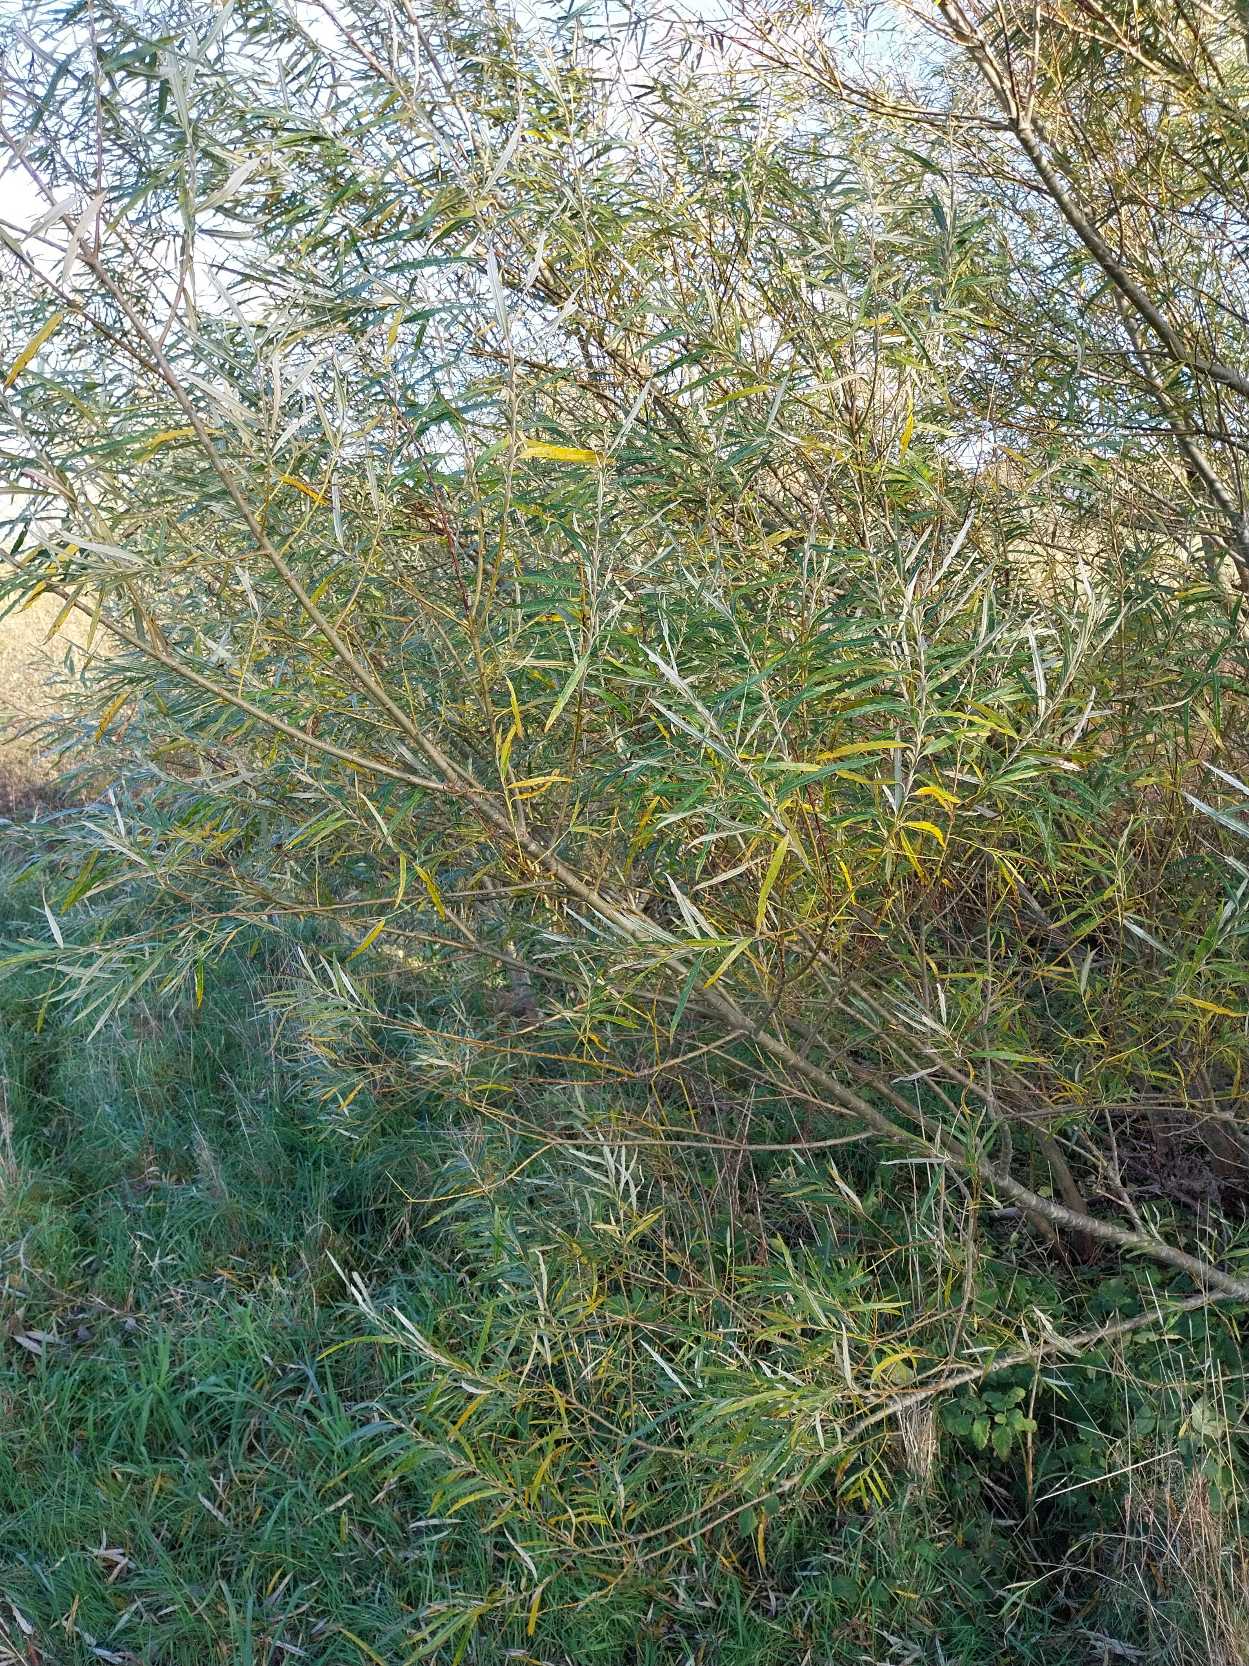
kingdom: Plantae
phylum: Tracheophyta
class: Magnoliopsida
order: Malpighiales
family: Salicaceae
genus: Salix
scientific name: Salix viminalis
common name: Bånd-pil
